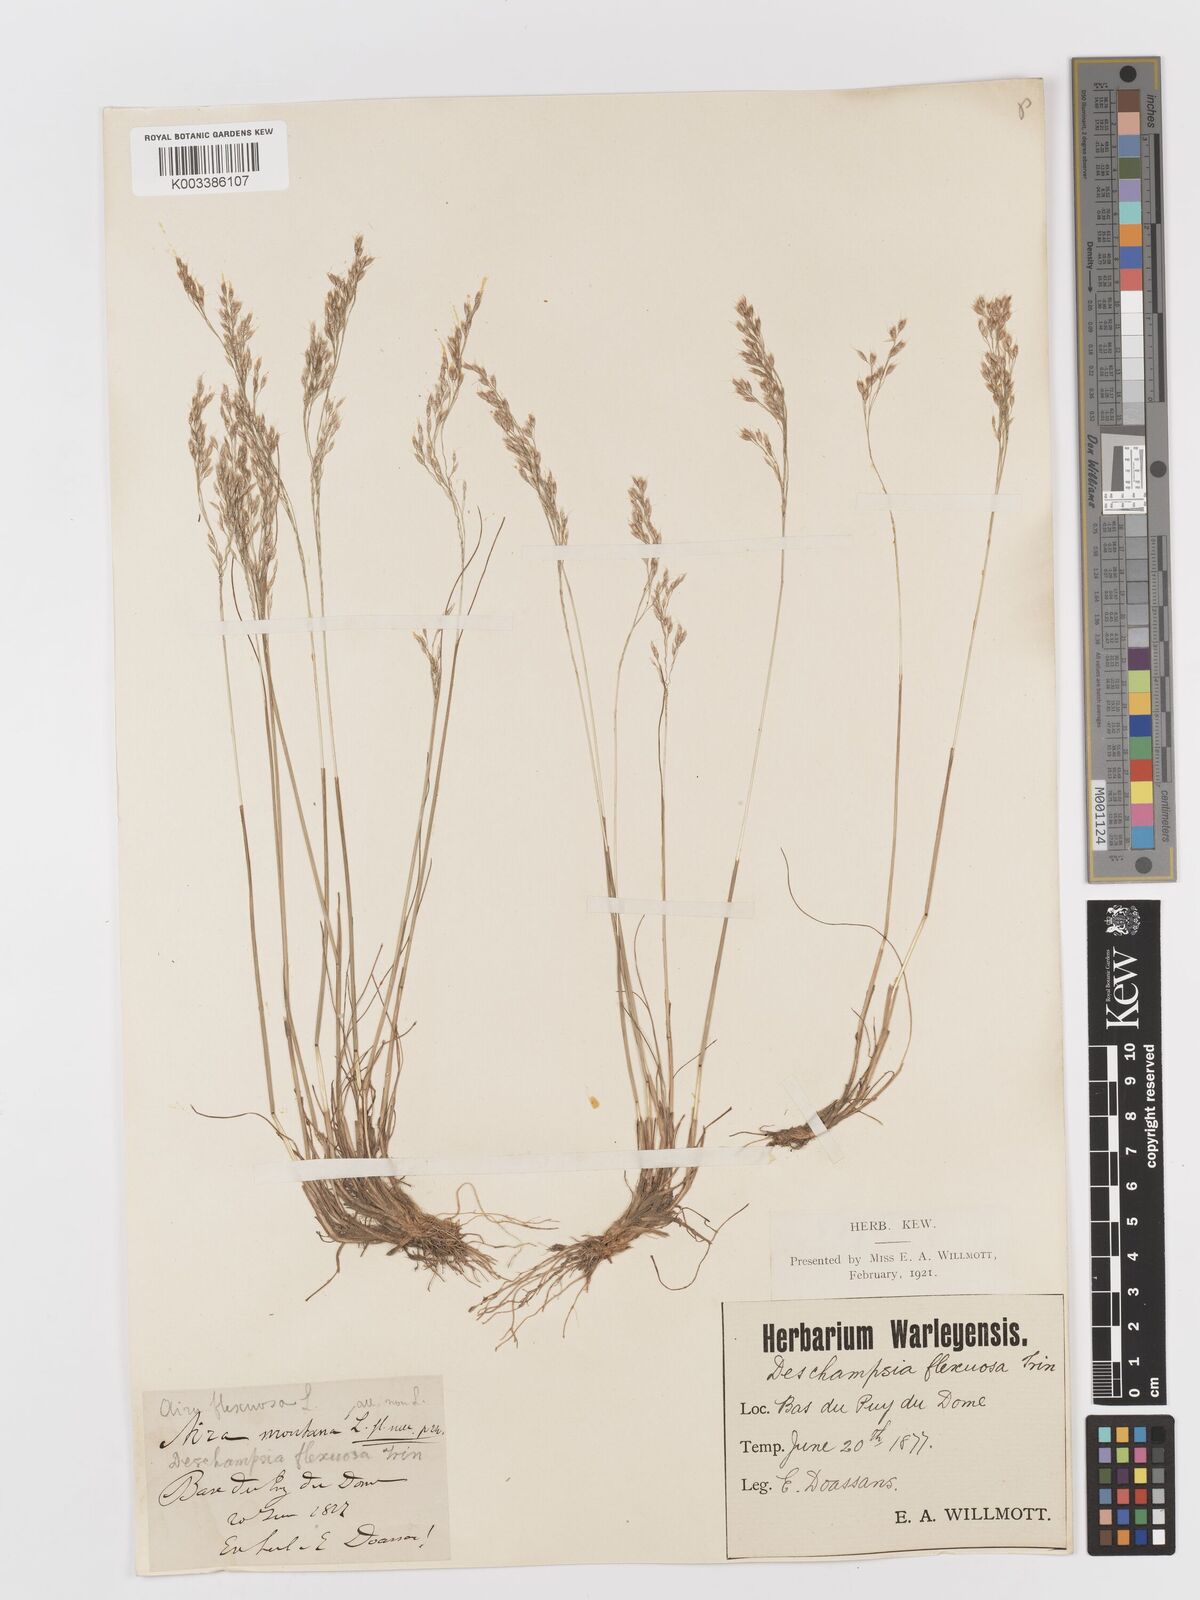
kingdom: Plantae
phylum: Tracheophyta
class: Liliopsida
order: Poales
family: Poaceae
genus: Avenella
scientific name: Avenella flexuosa
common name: Wavy hairgrass
